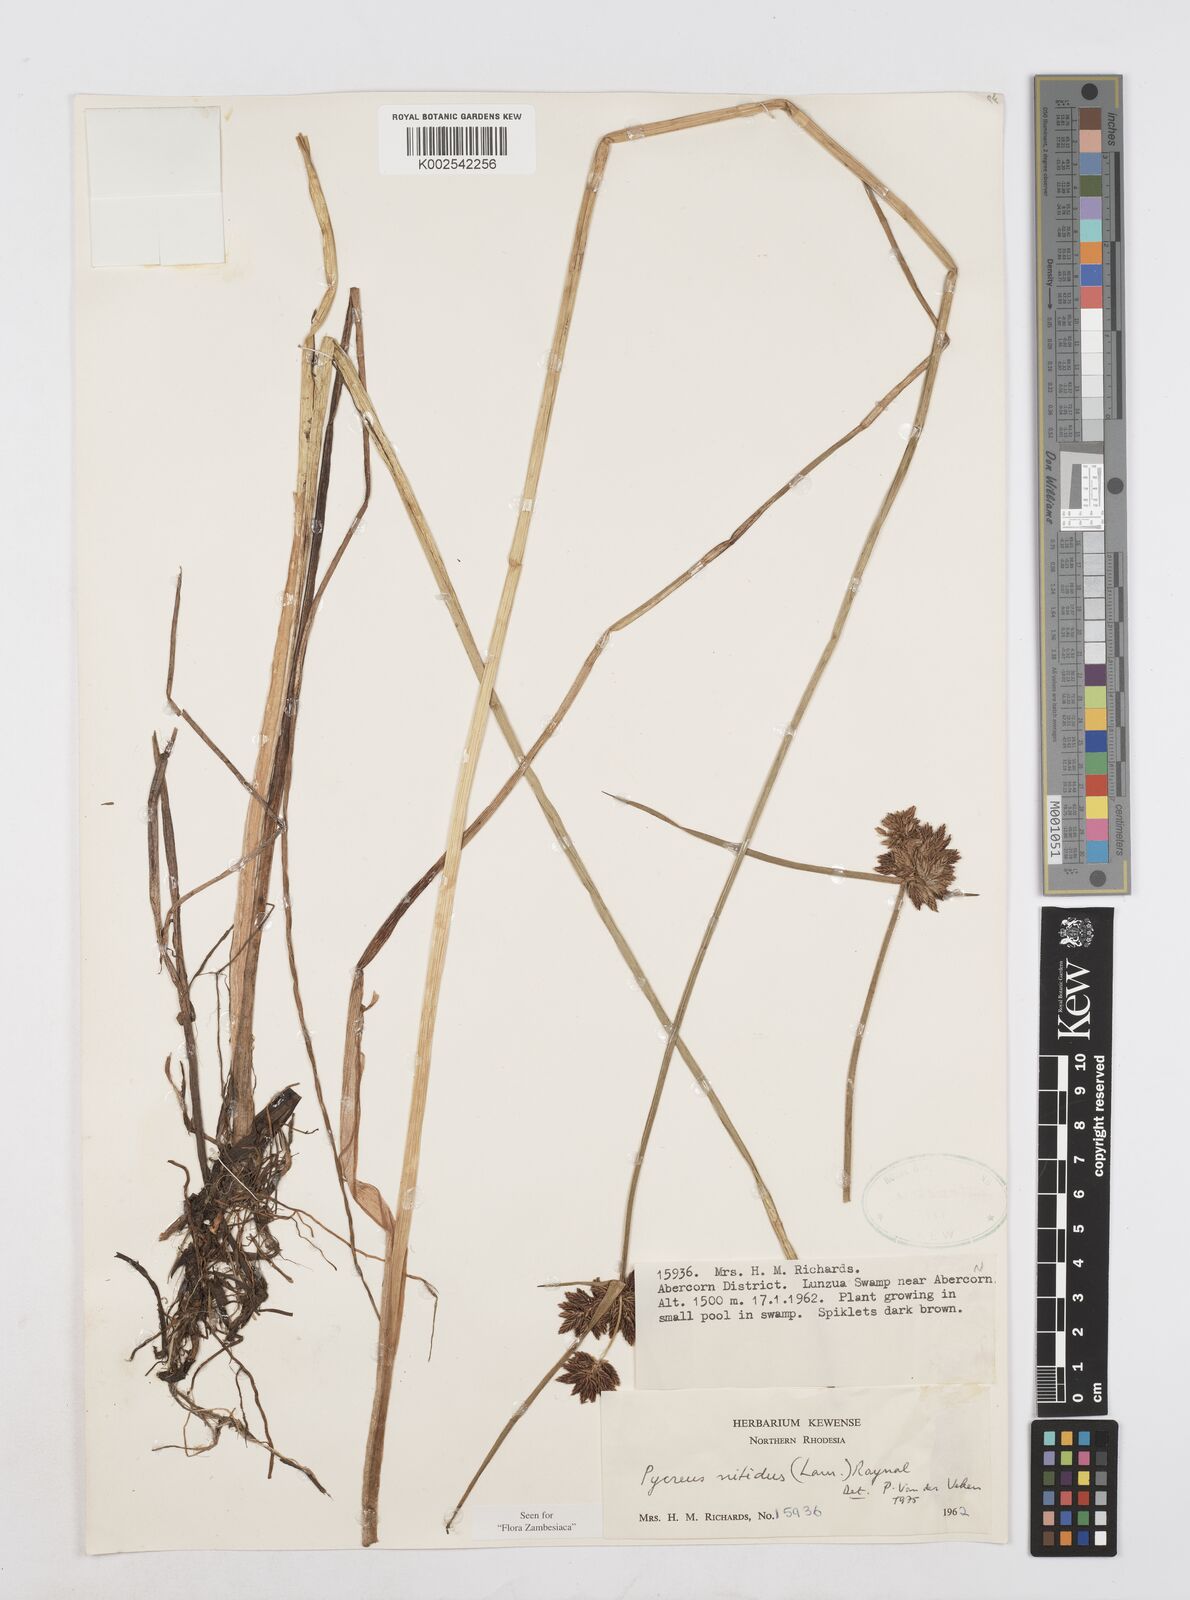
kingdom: Plantae
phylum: Tracheophyta
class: Liliopsida
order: Poales
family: Cyperaceae
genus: Cyperus
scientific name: Cyperus nitidus
